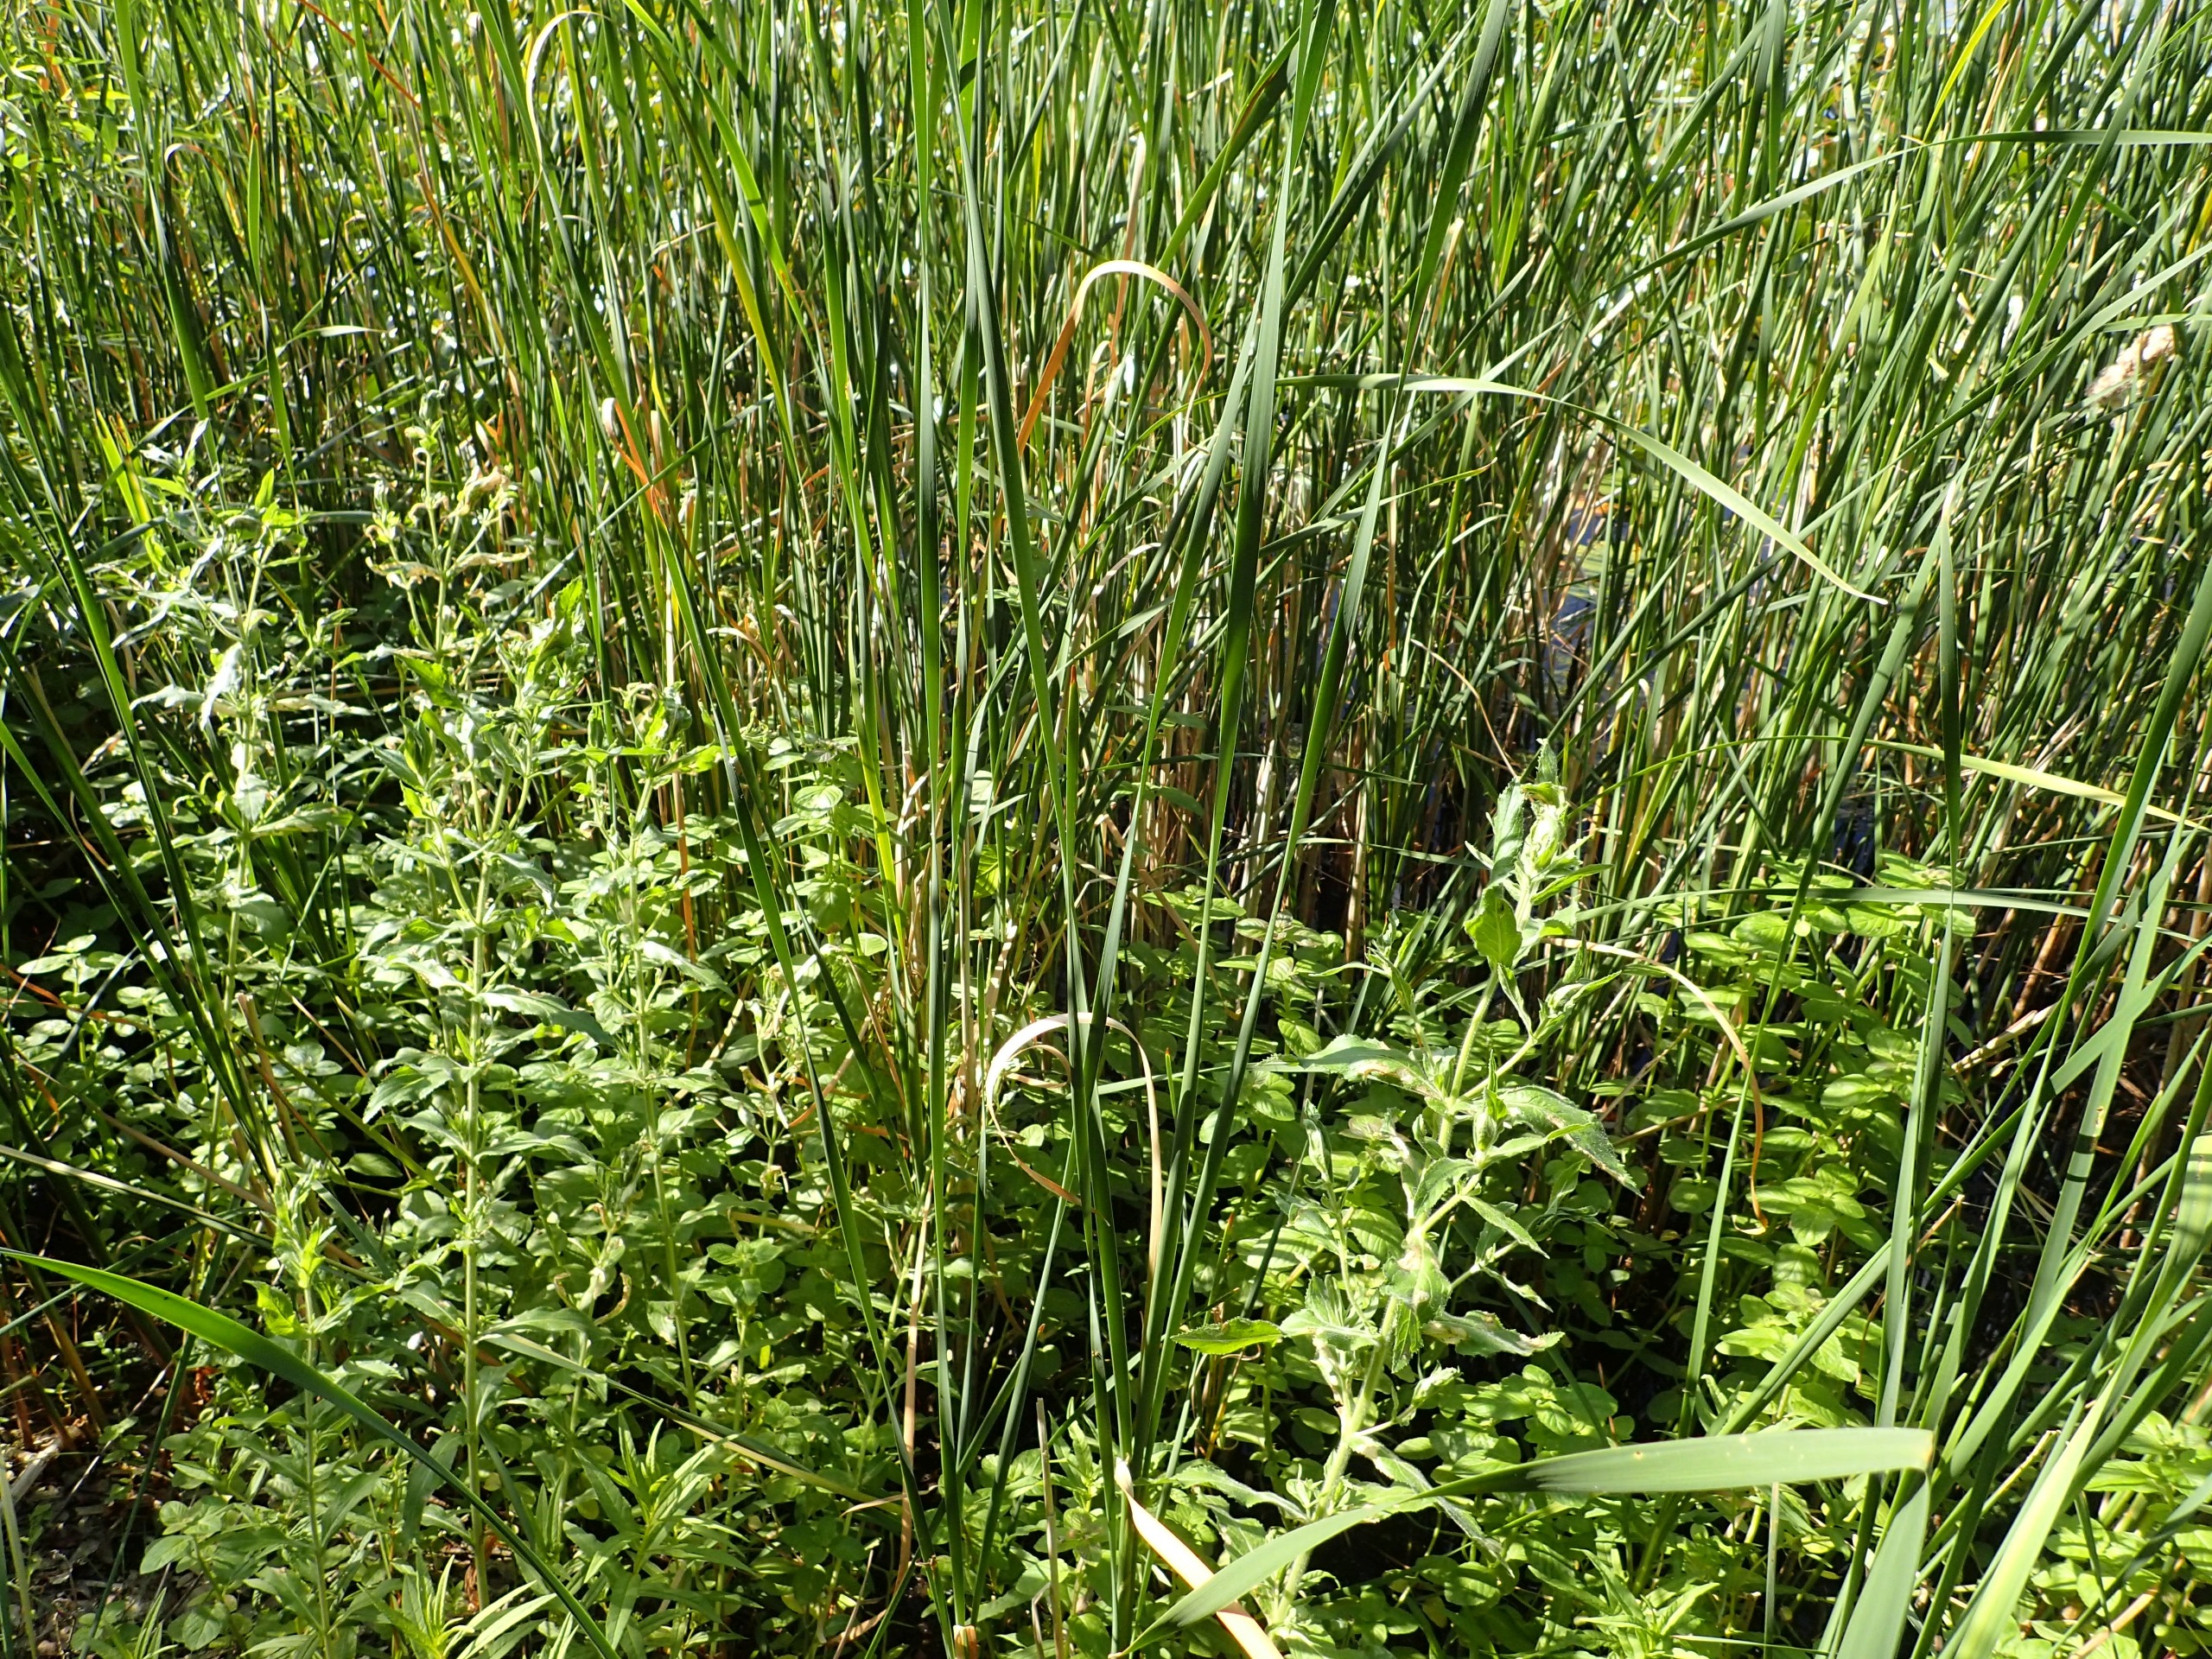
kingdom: Plantae
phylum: Tracheophyta
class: Liliopsida
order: Poales
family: Typhaceae
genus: Typha
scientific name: Typha angustifolia
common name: Smalbladet dunhammer
